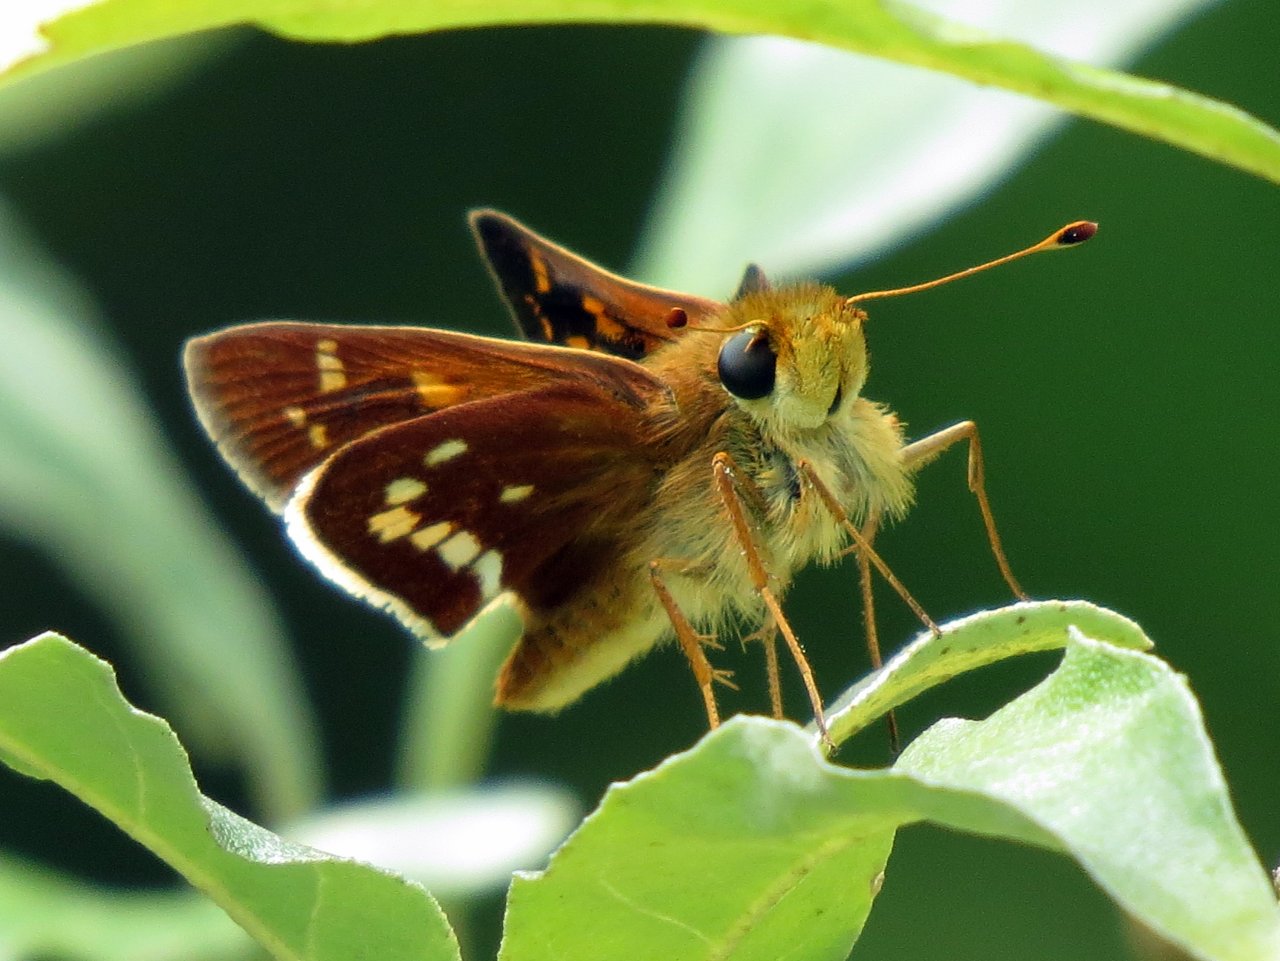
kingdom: Animalia
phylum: Arthropoda
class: Insecta
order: Lepidoptera
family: Hesperiidae
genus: Hesperia
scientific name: Hesperia leonardus
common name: Leonard's Skipper
